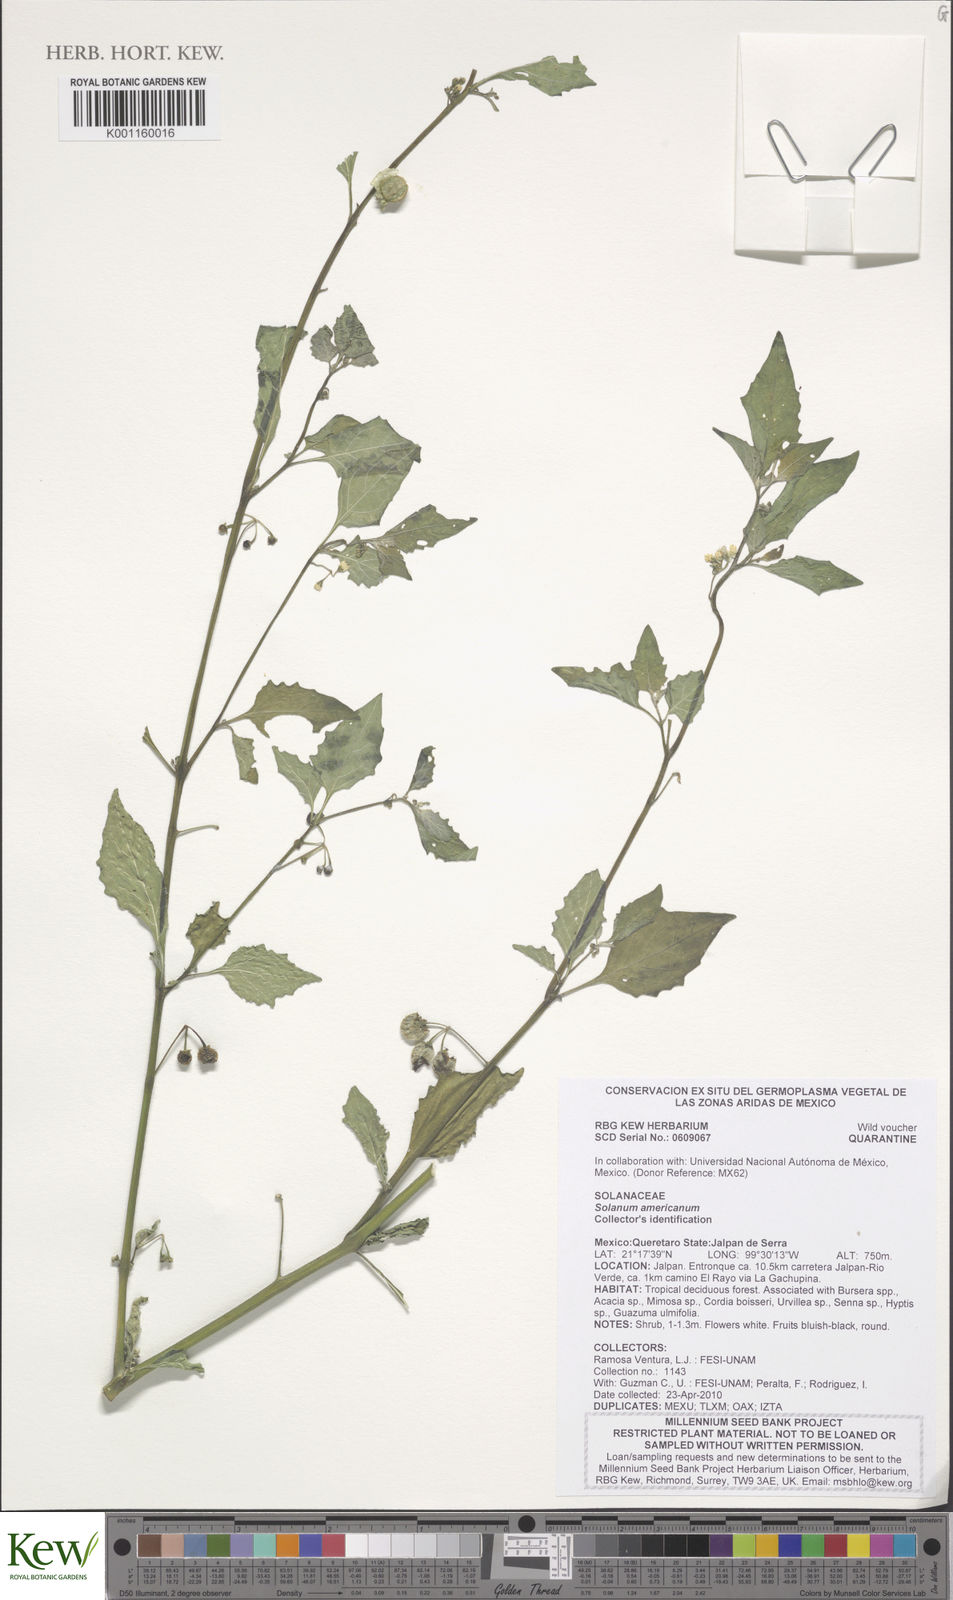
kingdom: Plantae
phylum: Tracheophyta
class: Magnoliopsida
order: Solanales
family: Solanaceae
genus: Solanum
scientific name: Solanum americanum
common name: American black nightshade
